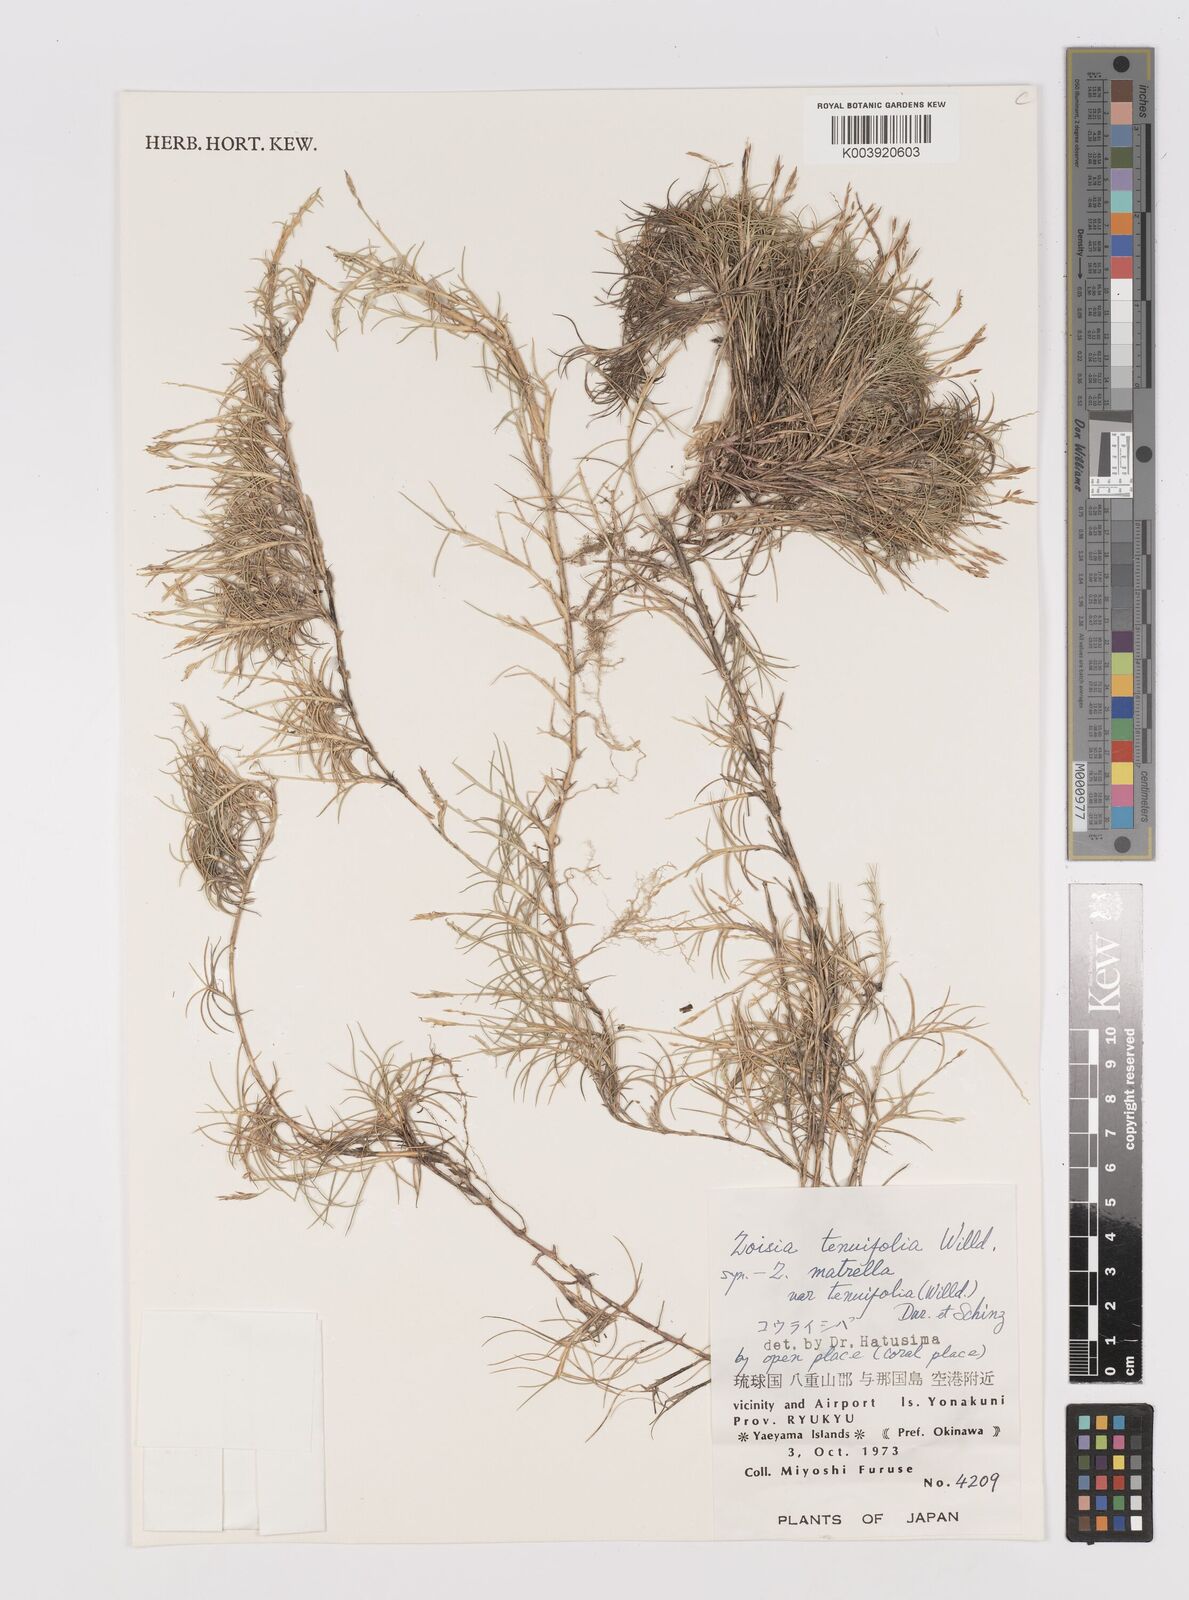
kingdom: Plantae
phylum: Tracheophyta
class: Liliopsida
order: Poales
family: Poaceae
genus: Zoysia
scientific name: Zoysia matrella
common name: Manila grass
